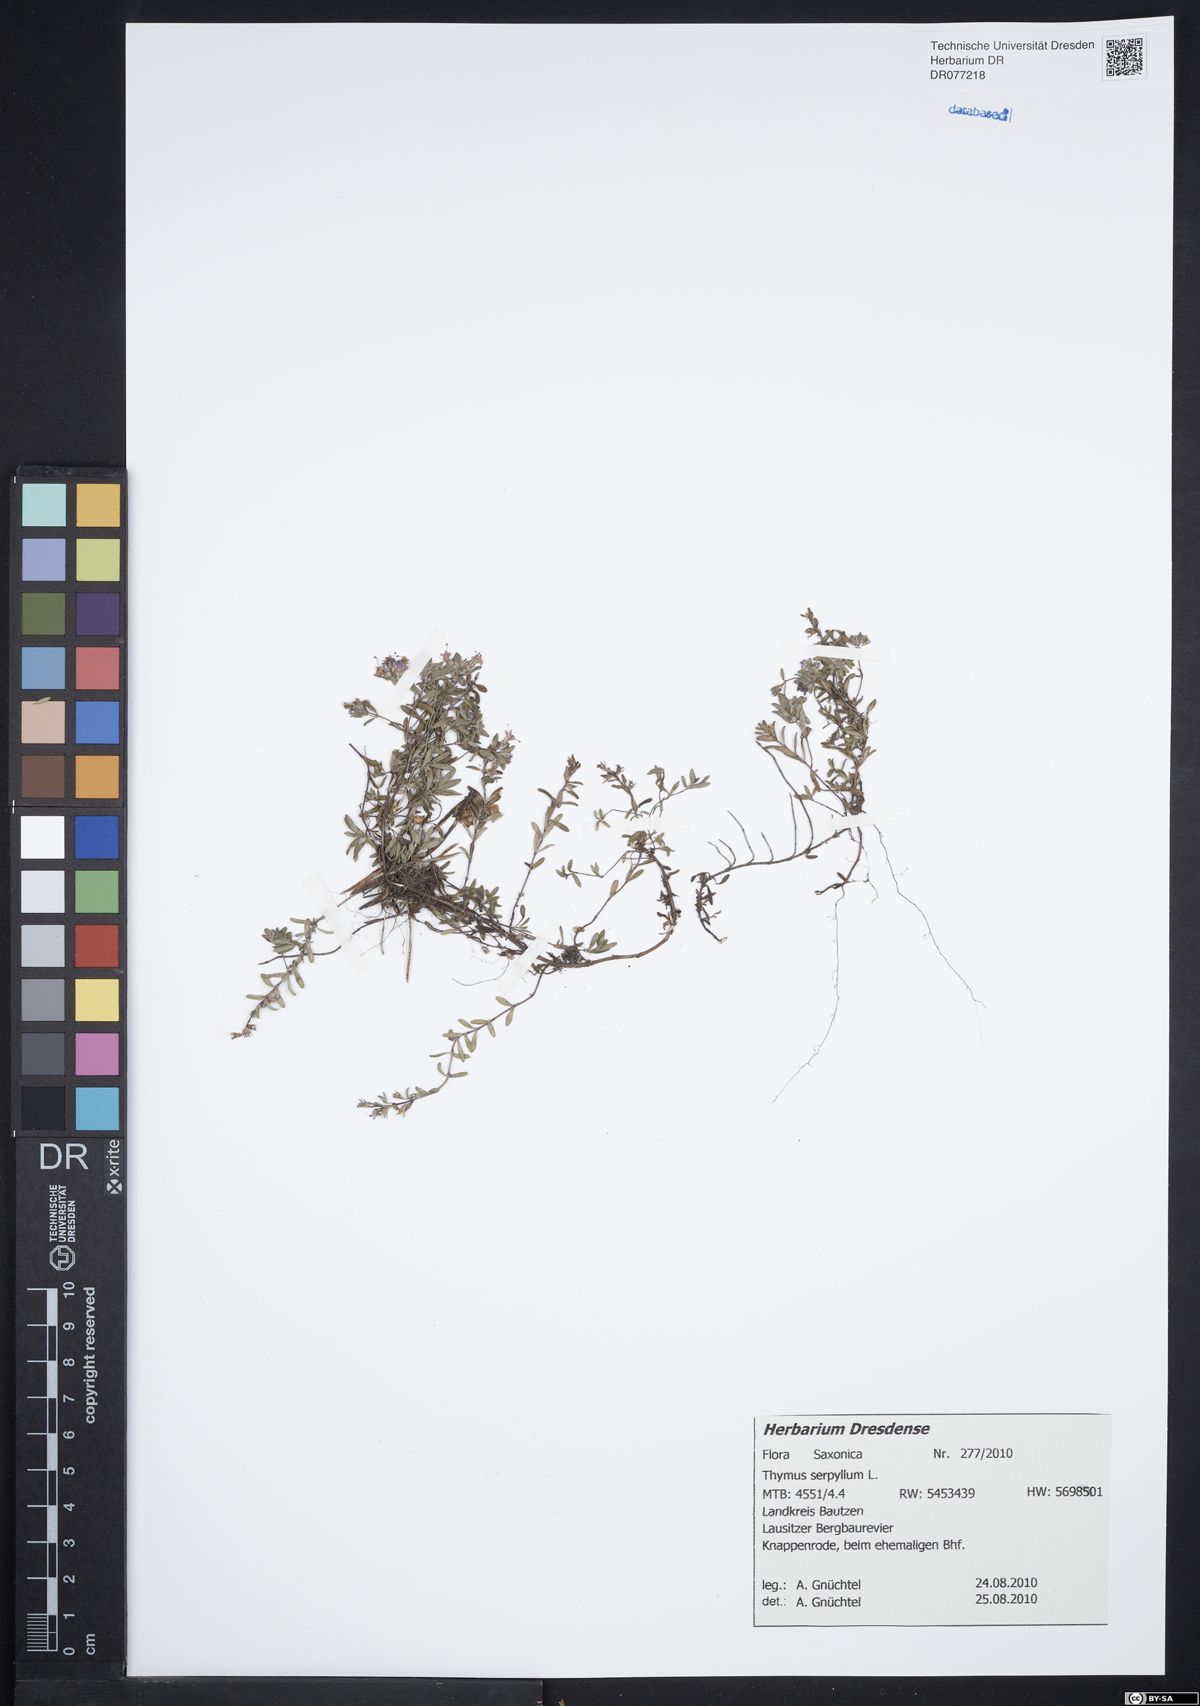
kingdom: Plantae
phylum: Tracheophyta
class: Magnoliopsida
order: Lamiales
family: Lamiaceae
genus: Thymus
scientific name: Thymus serpyllum
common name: Breckland thyme
